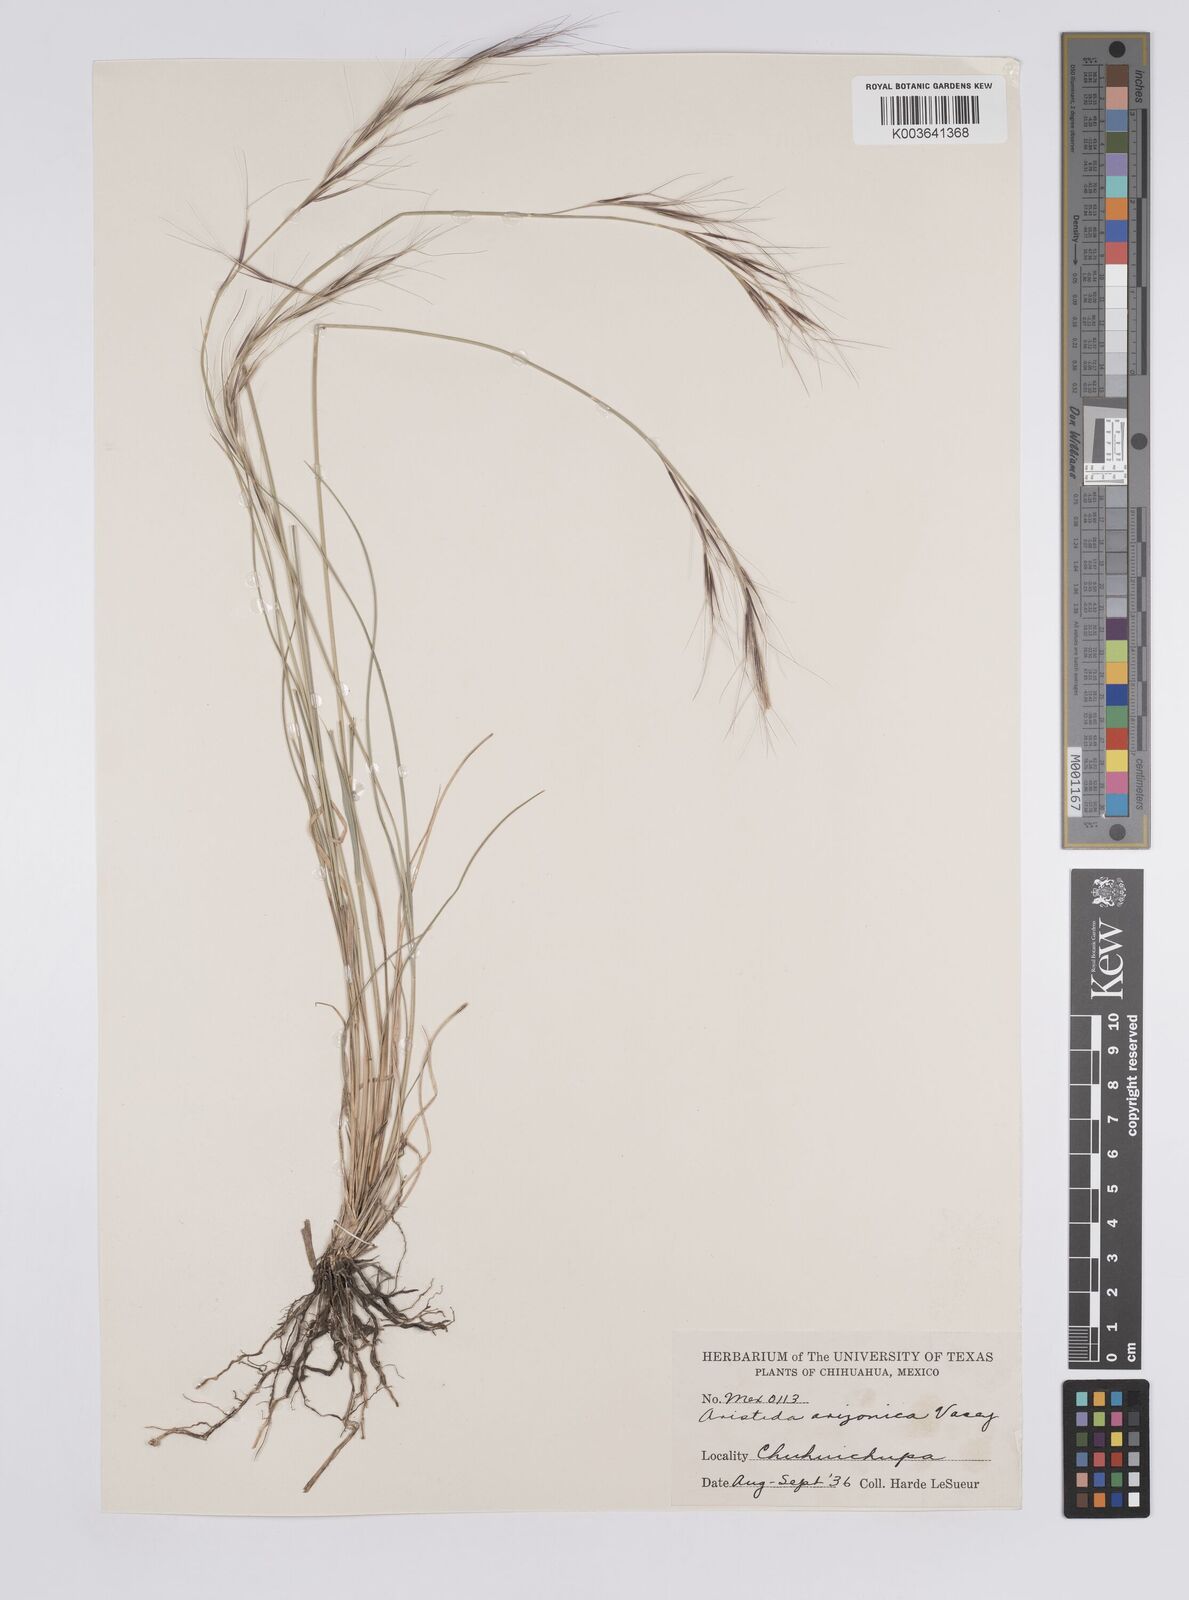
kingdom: Plantae
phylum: Tracheophyta
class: Liliopsida
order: Poales
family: Poaceae
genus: Aristida
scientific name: Aristida arizonica
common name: Arizona threeawn
